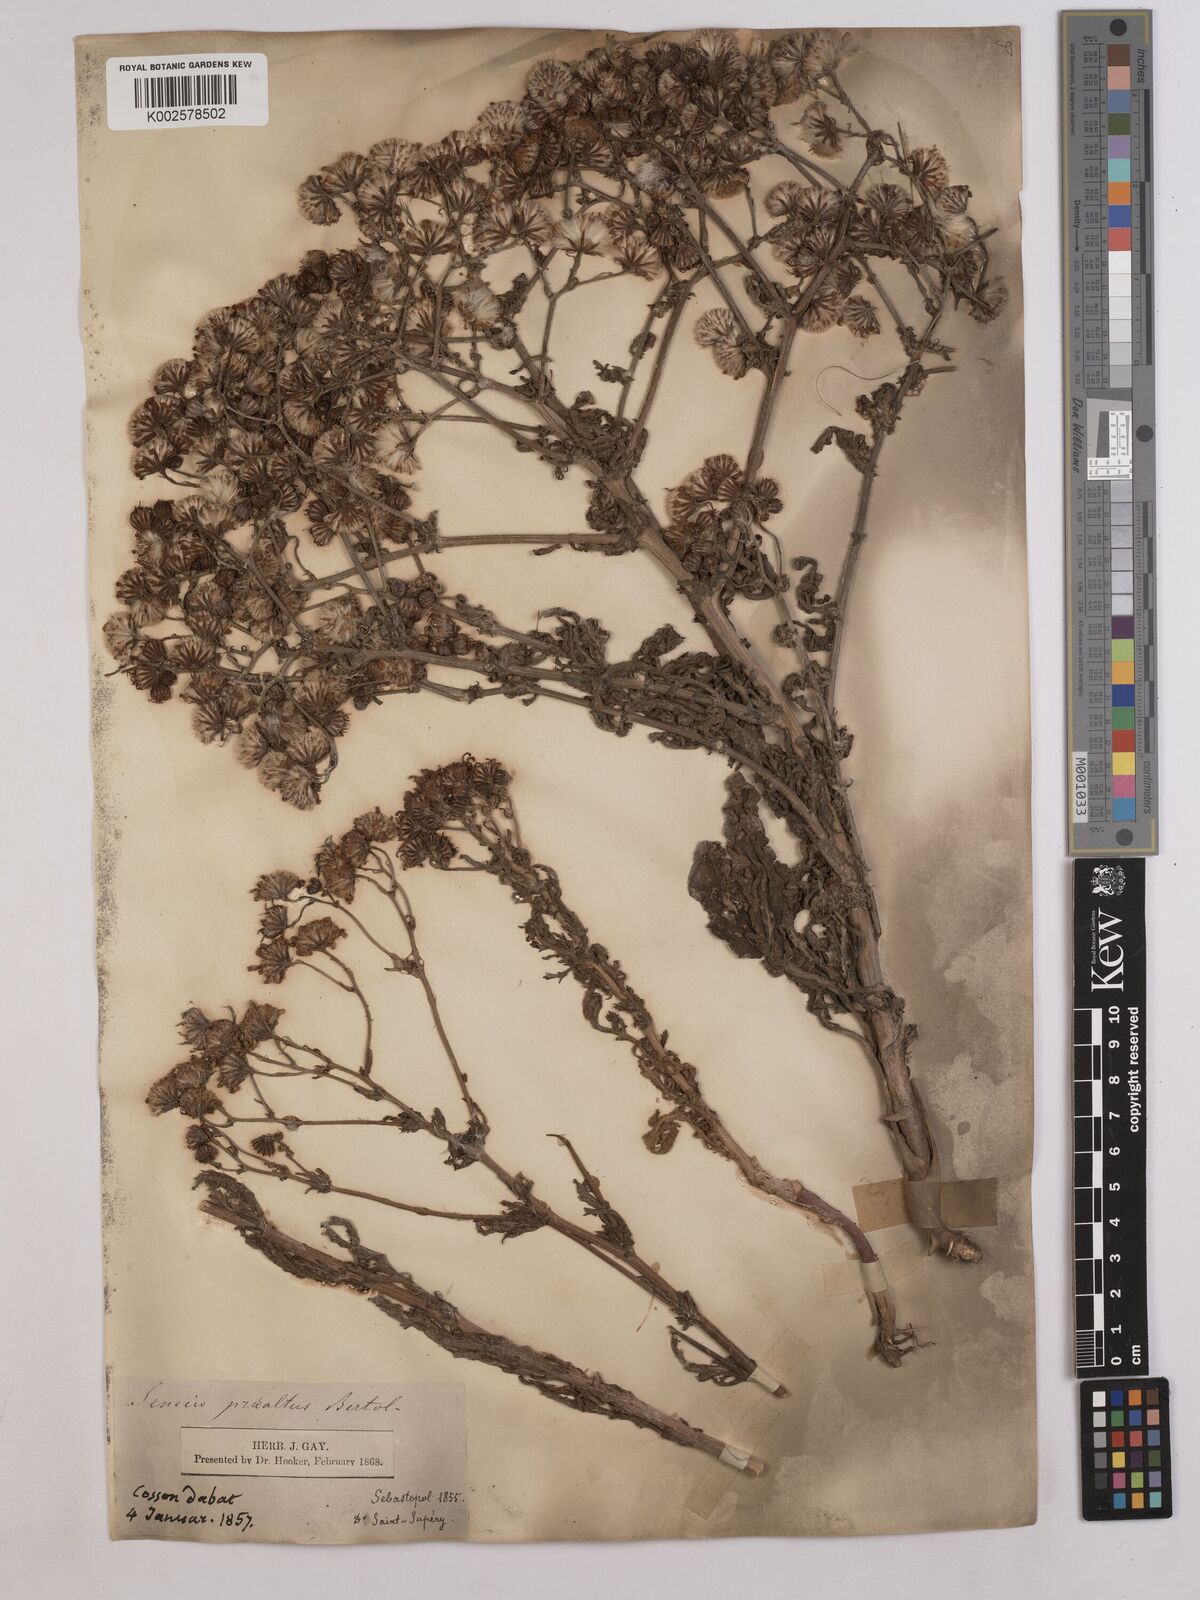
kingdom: Plantae
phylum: Tracheophyta
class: Magnoliopsida
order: Asterales
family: Asteraceae
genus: Jacobaea
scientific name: Jacobaea vulgaris
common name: Stinking willie
